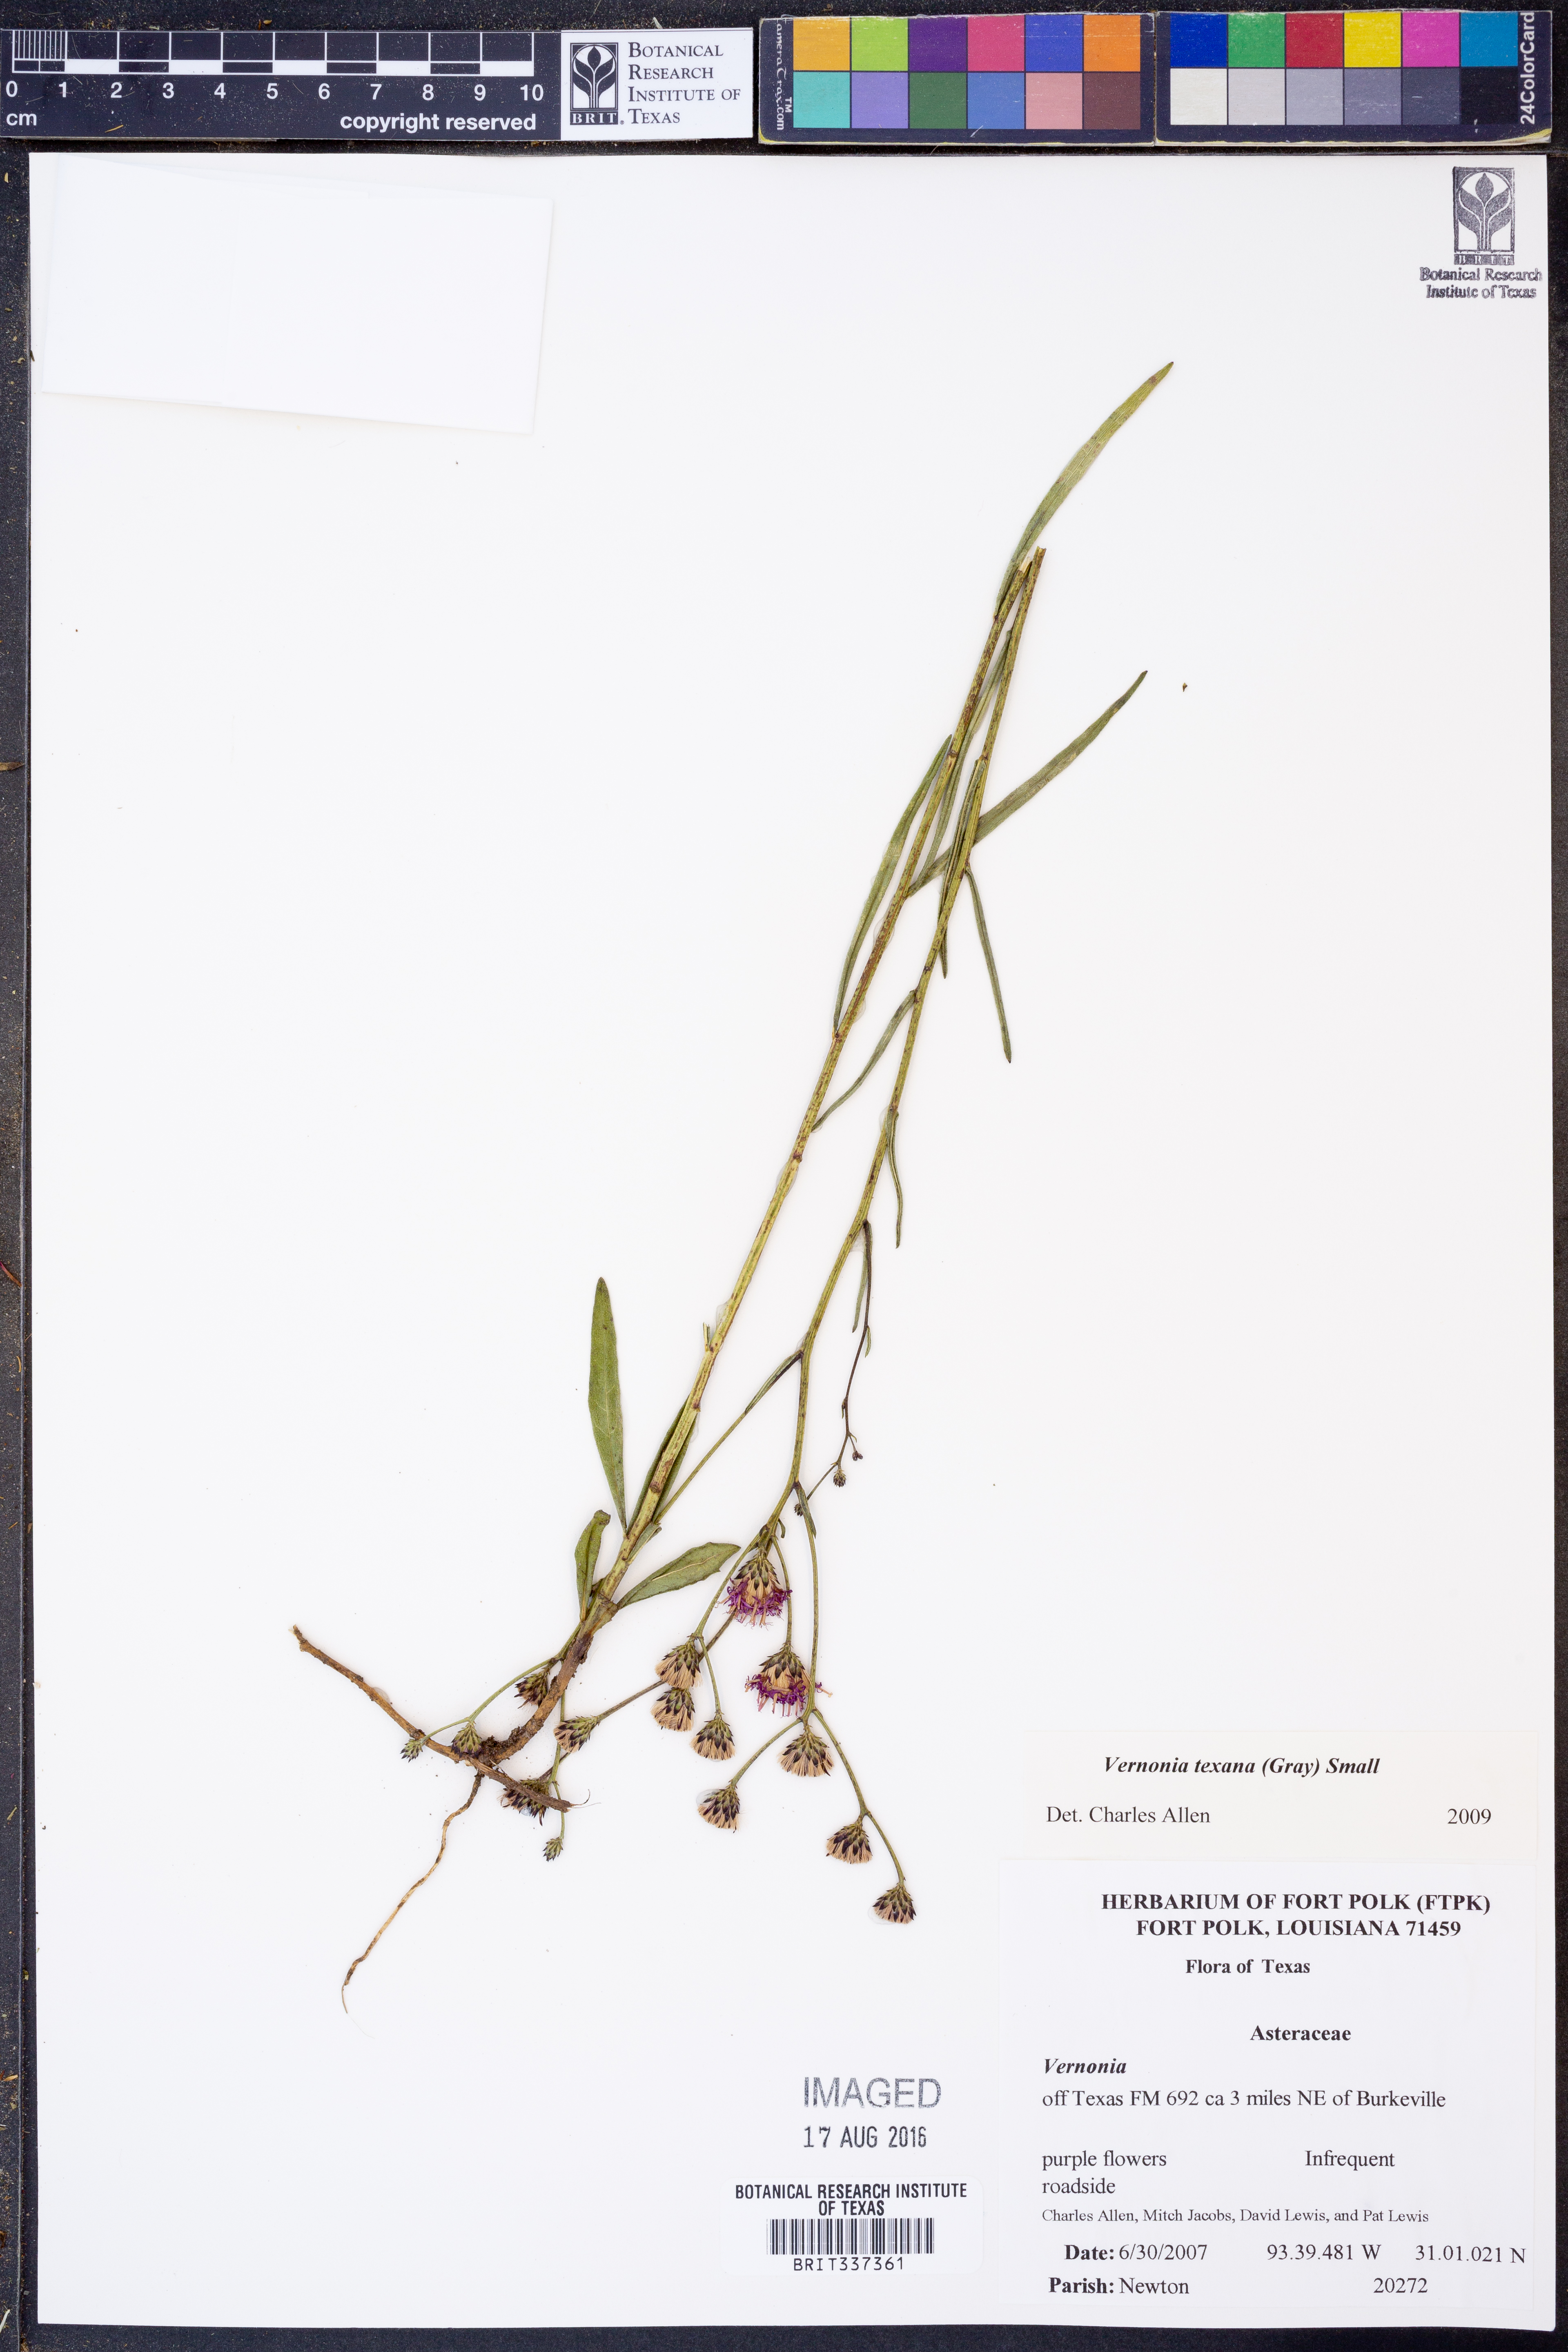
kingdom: Plantae
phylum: Tracheophyta
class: Magnoliopsida
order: Asterales
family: Asteraceae
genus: Vernonia
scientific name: Vernonia texana
